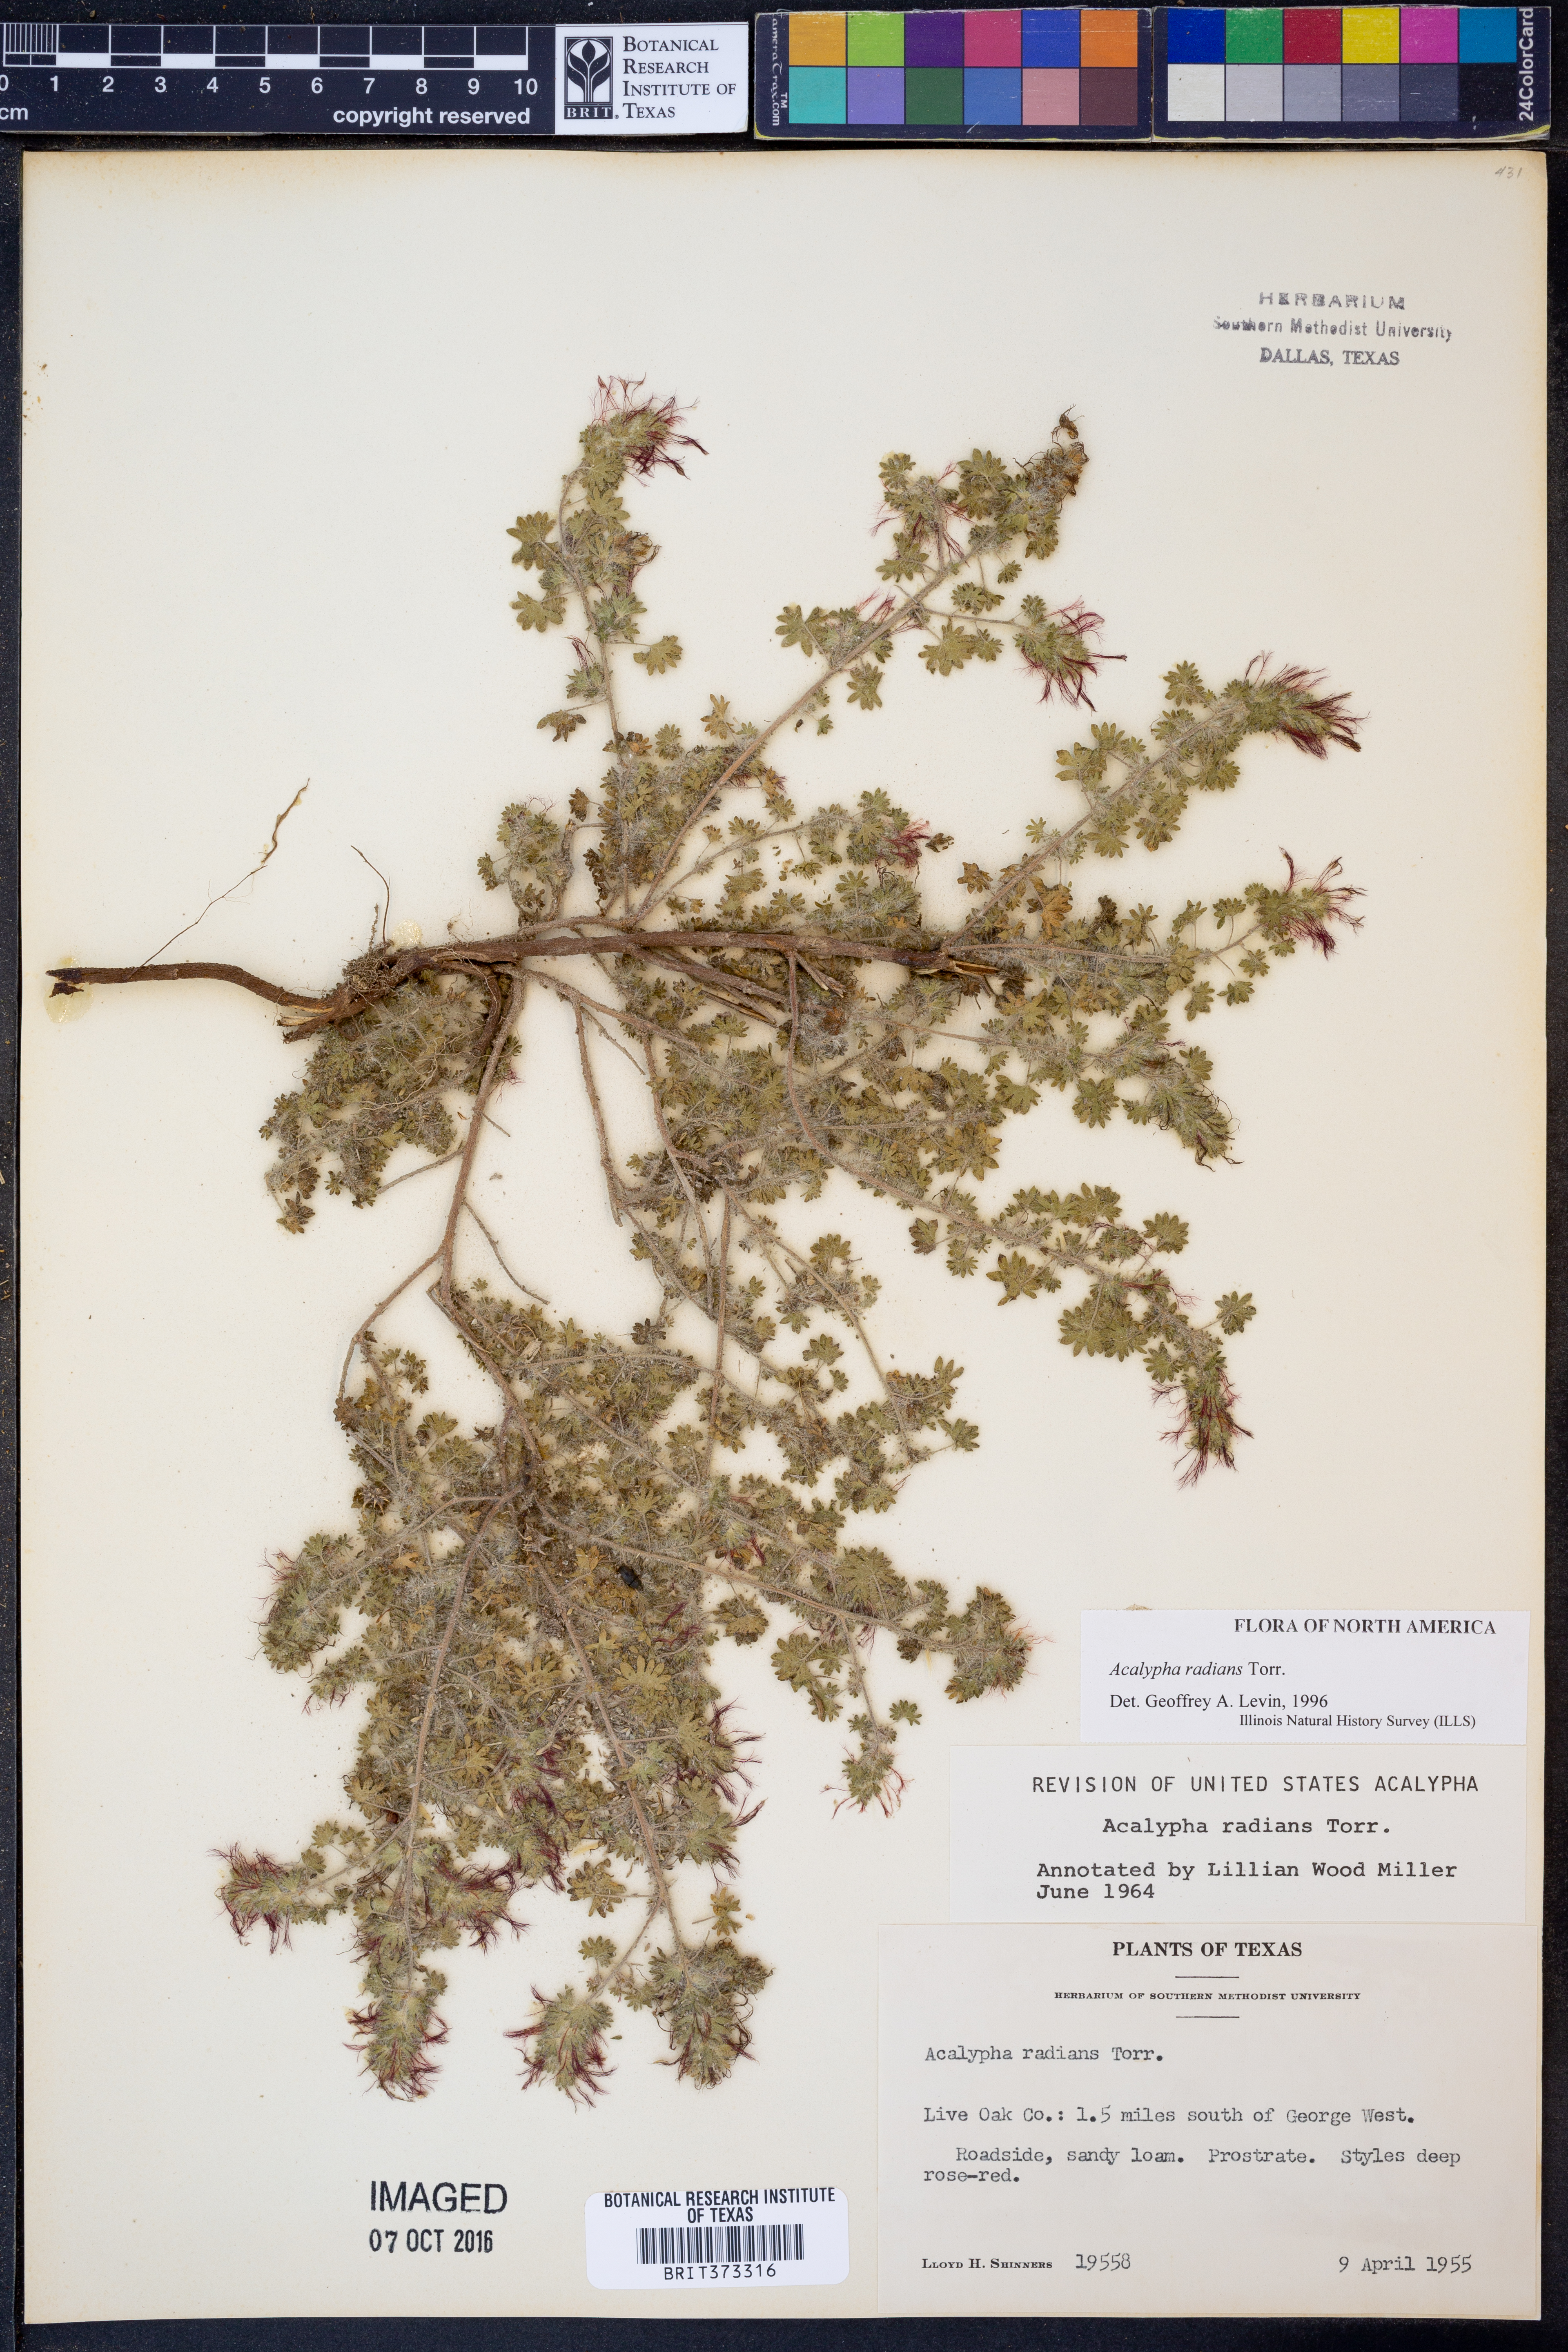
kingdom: Plantae
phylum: Tracheophyta
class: Magnoliopsida
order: Malpighiales
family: Euphorbiaceae
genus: Acalypha
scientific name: Acalypha radians
